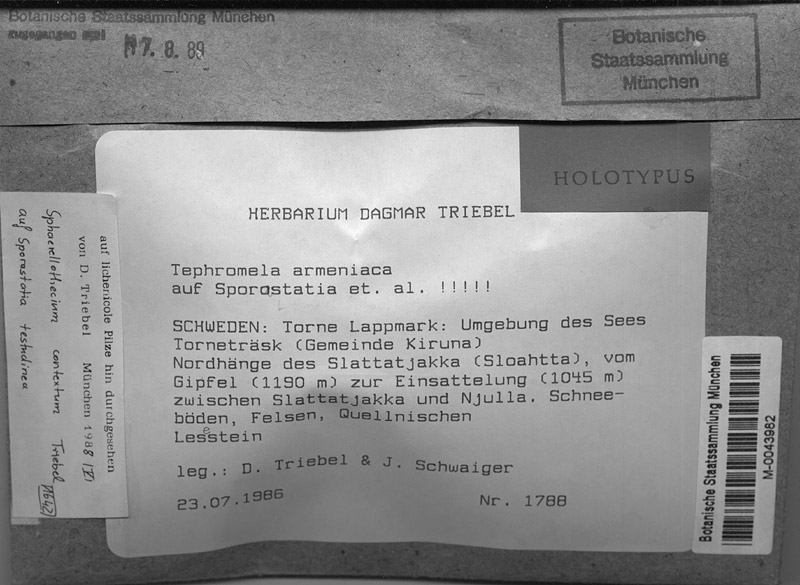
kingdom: Fungi
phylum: Ascomycota
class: Dothideomycetes
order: Mycosphaerellales
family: Mycosphaerellaceae
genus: Sphaerellothecium
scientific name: Sphaerellothecium contextum
